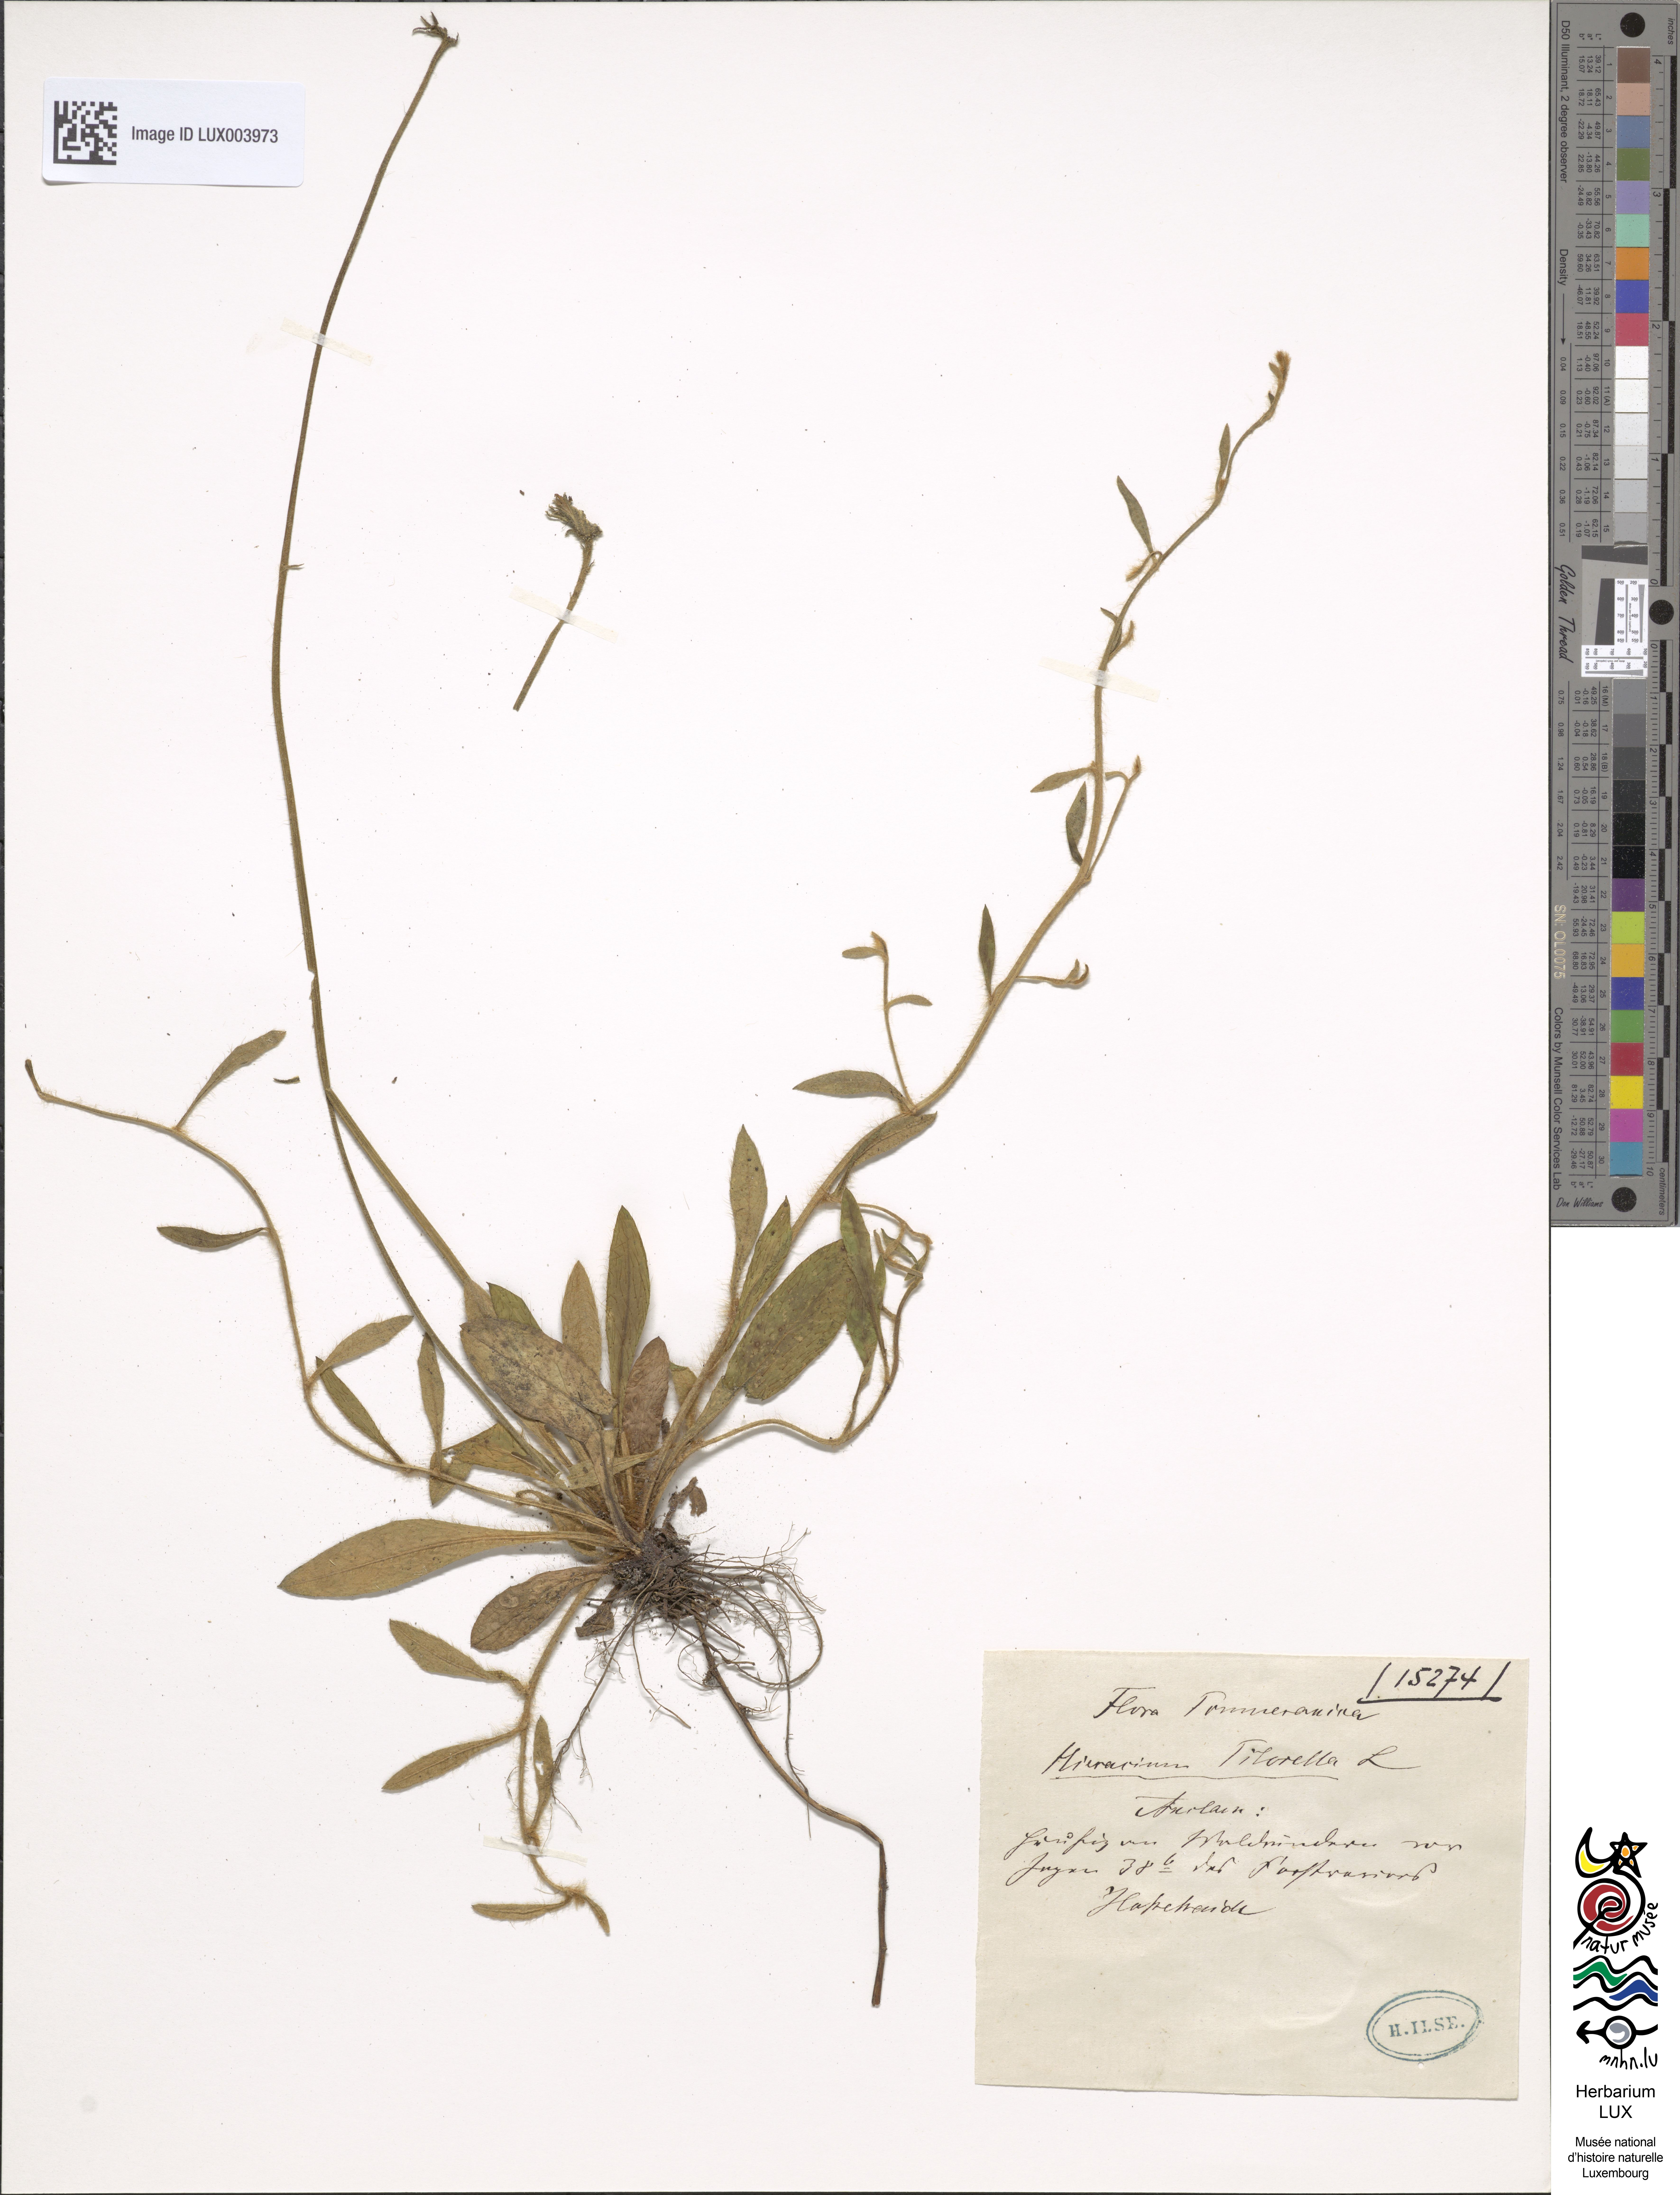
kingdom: Plantae
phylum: Tracheophyta
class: Magnoliopsida
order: Asterales
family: Asteraceae
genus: Pilosella
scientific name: Pilosella officinarum
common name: Mouse-ear hawkweed
